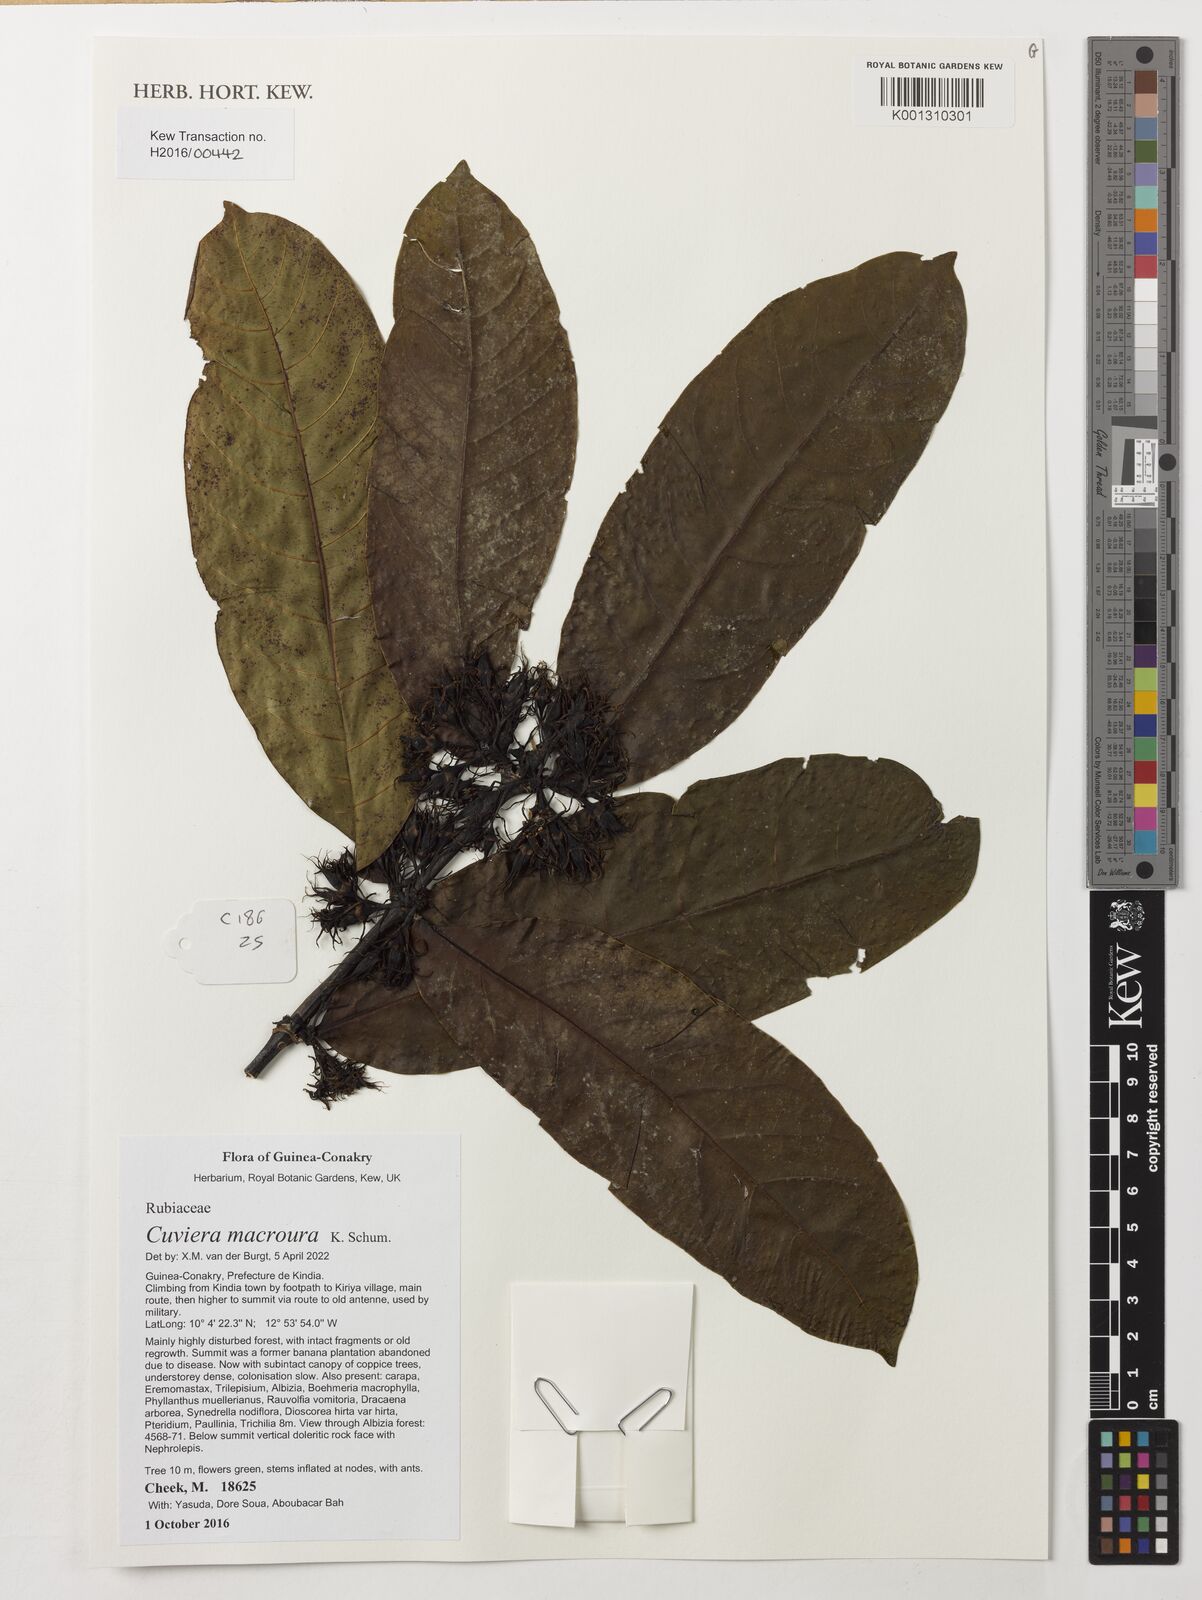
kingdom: Plantae
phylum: Tracheophyta
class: Magnoliopsida
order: Gentianales
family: Rubiaceae
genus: Cuviera
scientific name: Cuviera macroura
